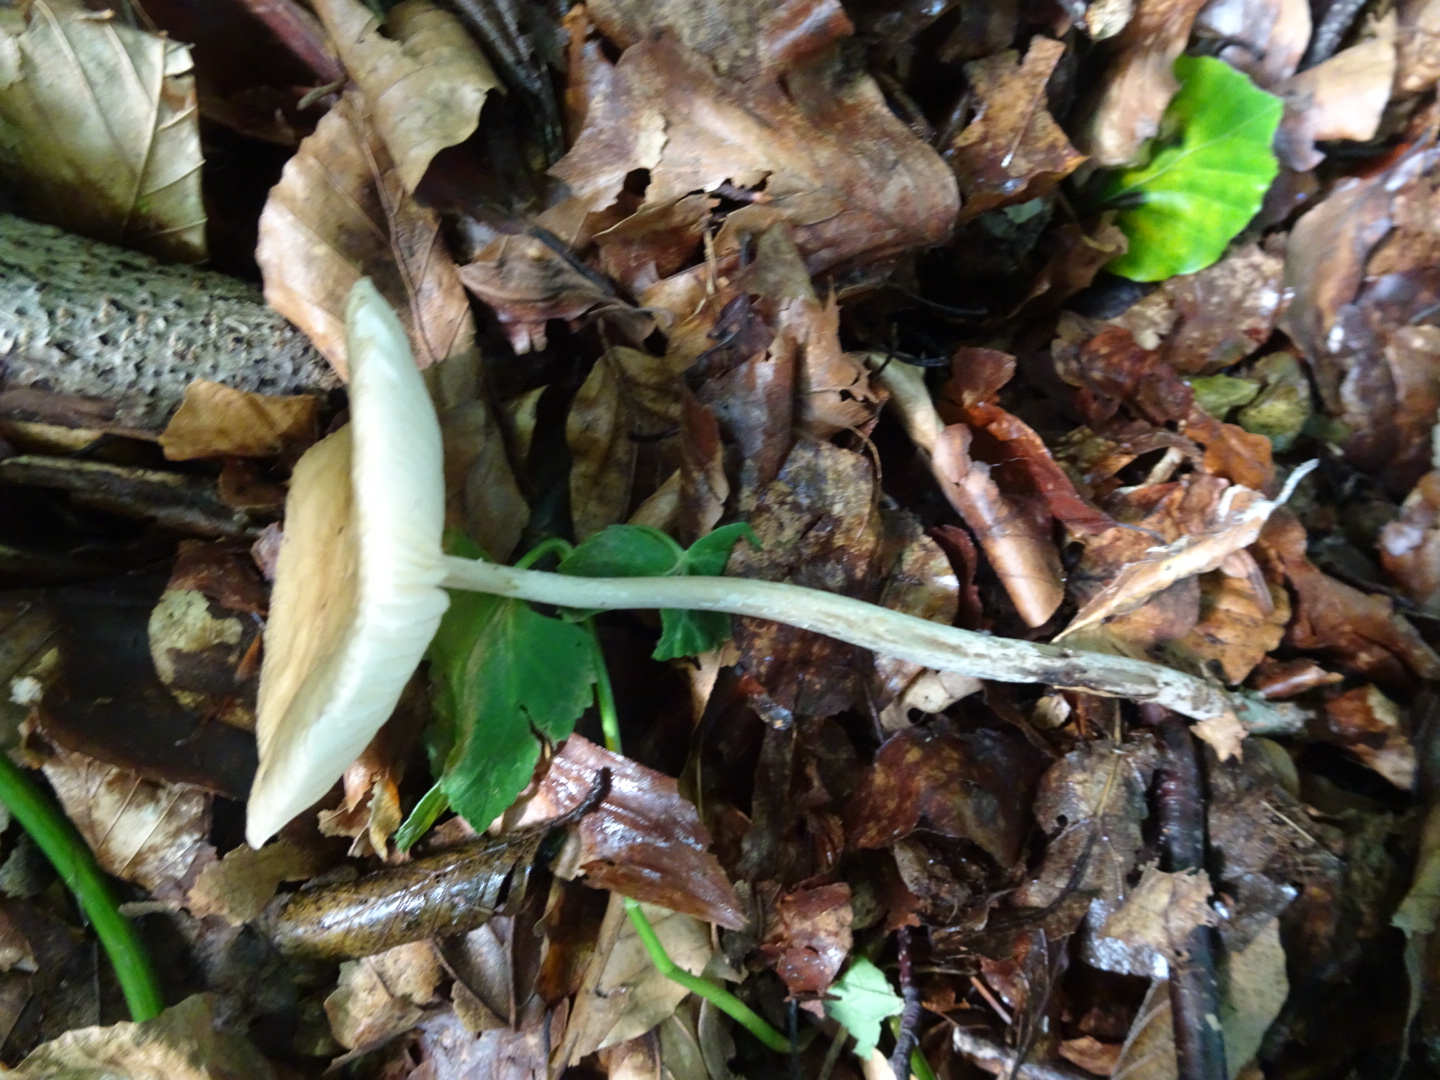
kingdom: Fungi
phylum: Basidiomycota
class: Agaricomycetes
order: Agaricales
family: Physalacriaceae
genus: Hymenopellis
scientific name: Hymenopellis radicata
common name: almindelig pælerodshat
